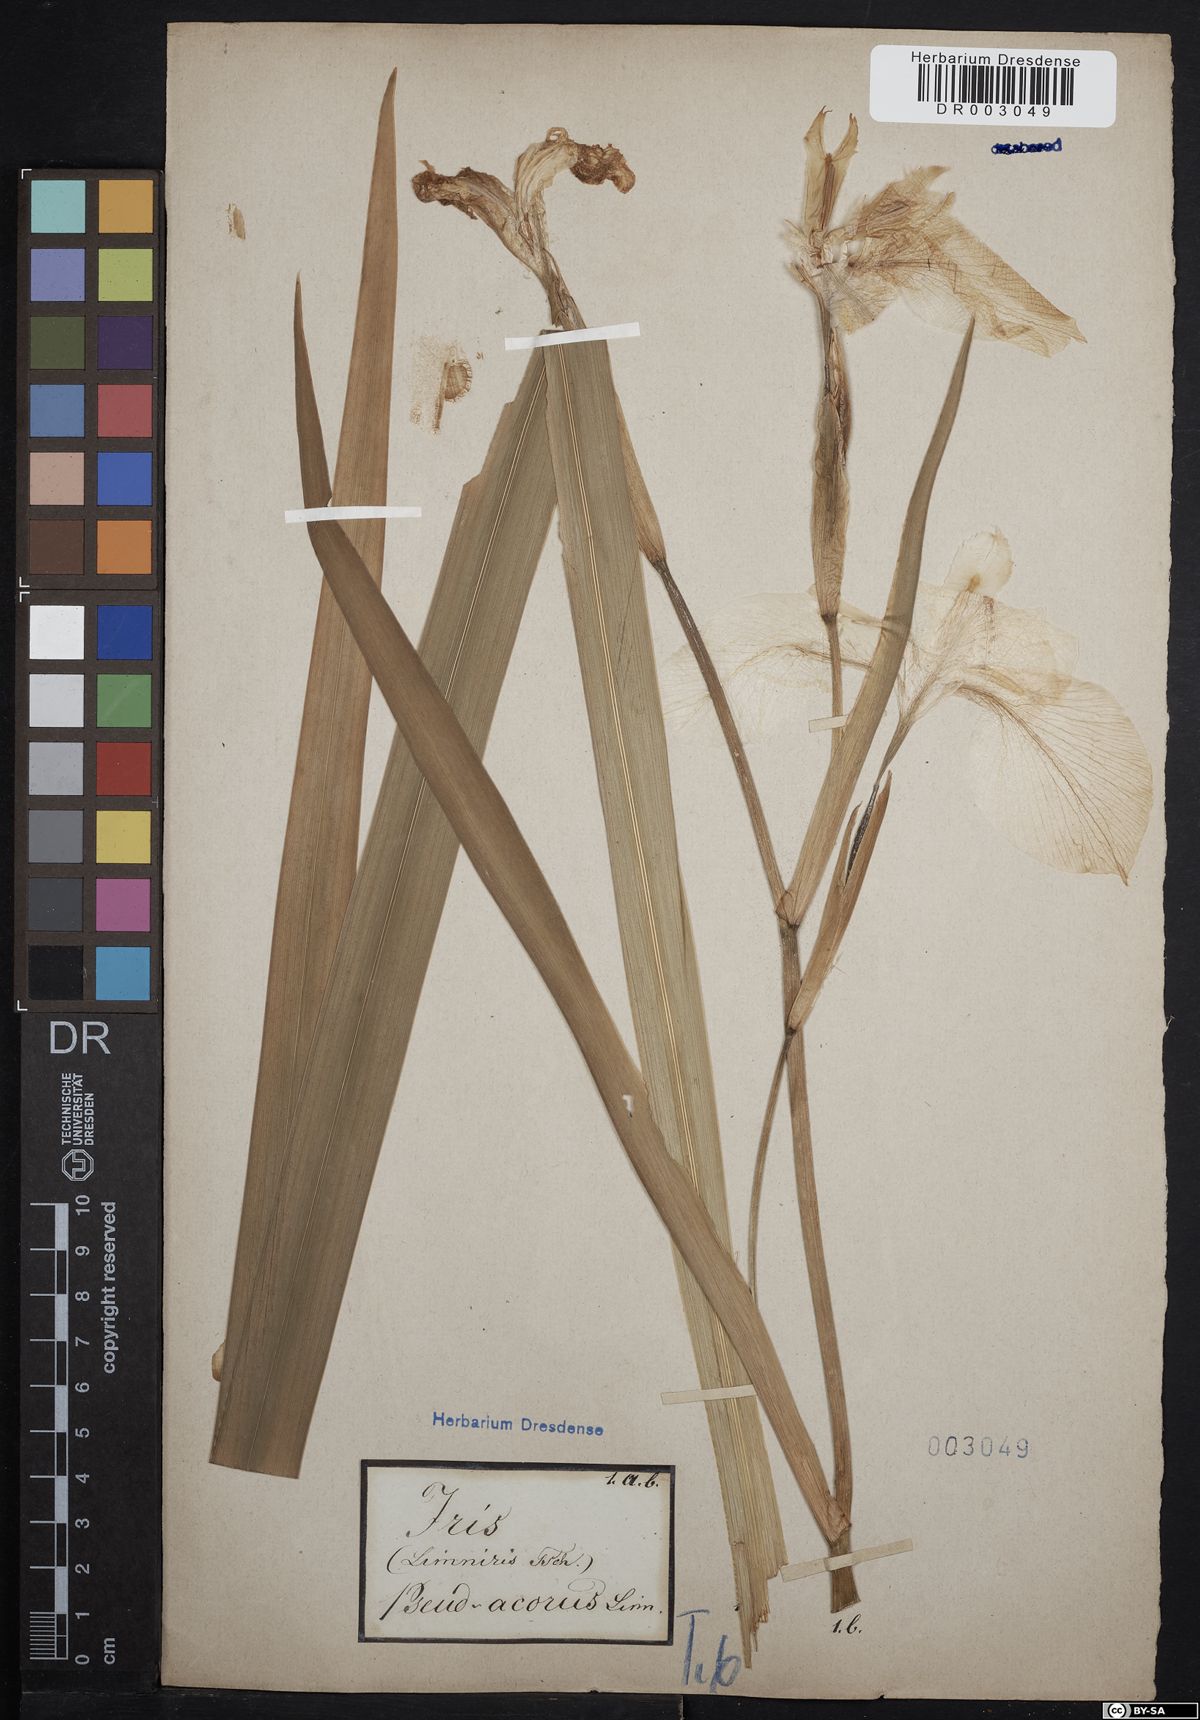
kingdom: Plantae
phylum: Tracheophyta
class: Liliopsida
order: Asparagales
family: Iridaceae
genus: Iris
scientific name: Iris pseudacorus
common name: Yellow flag
